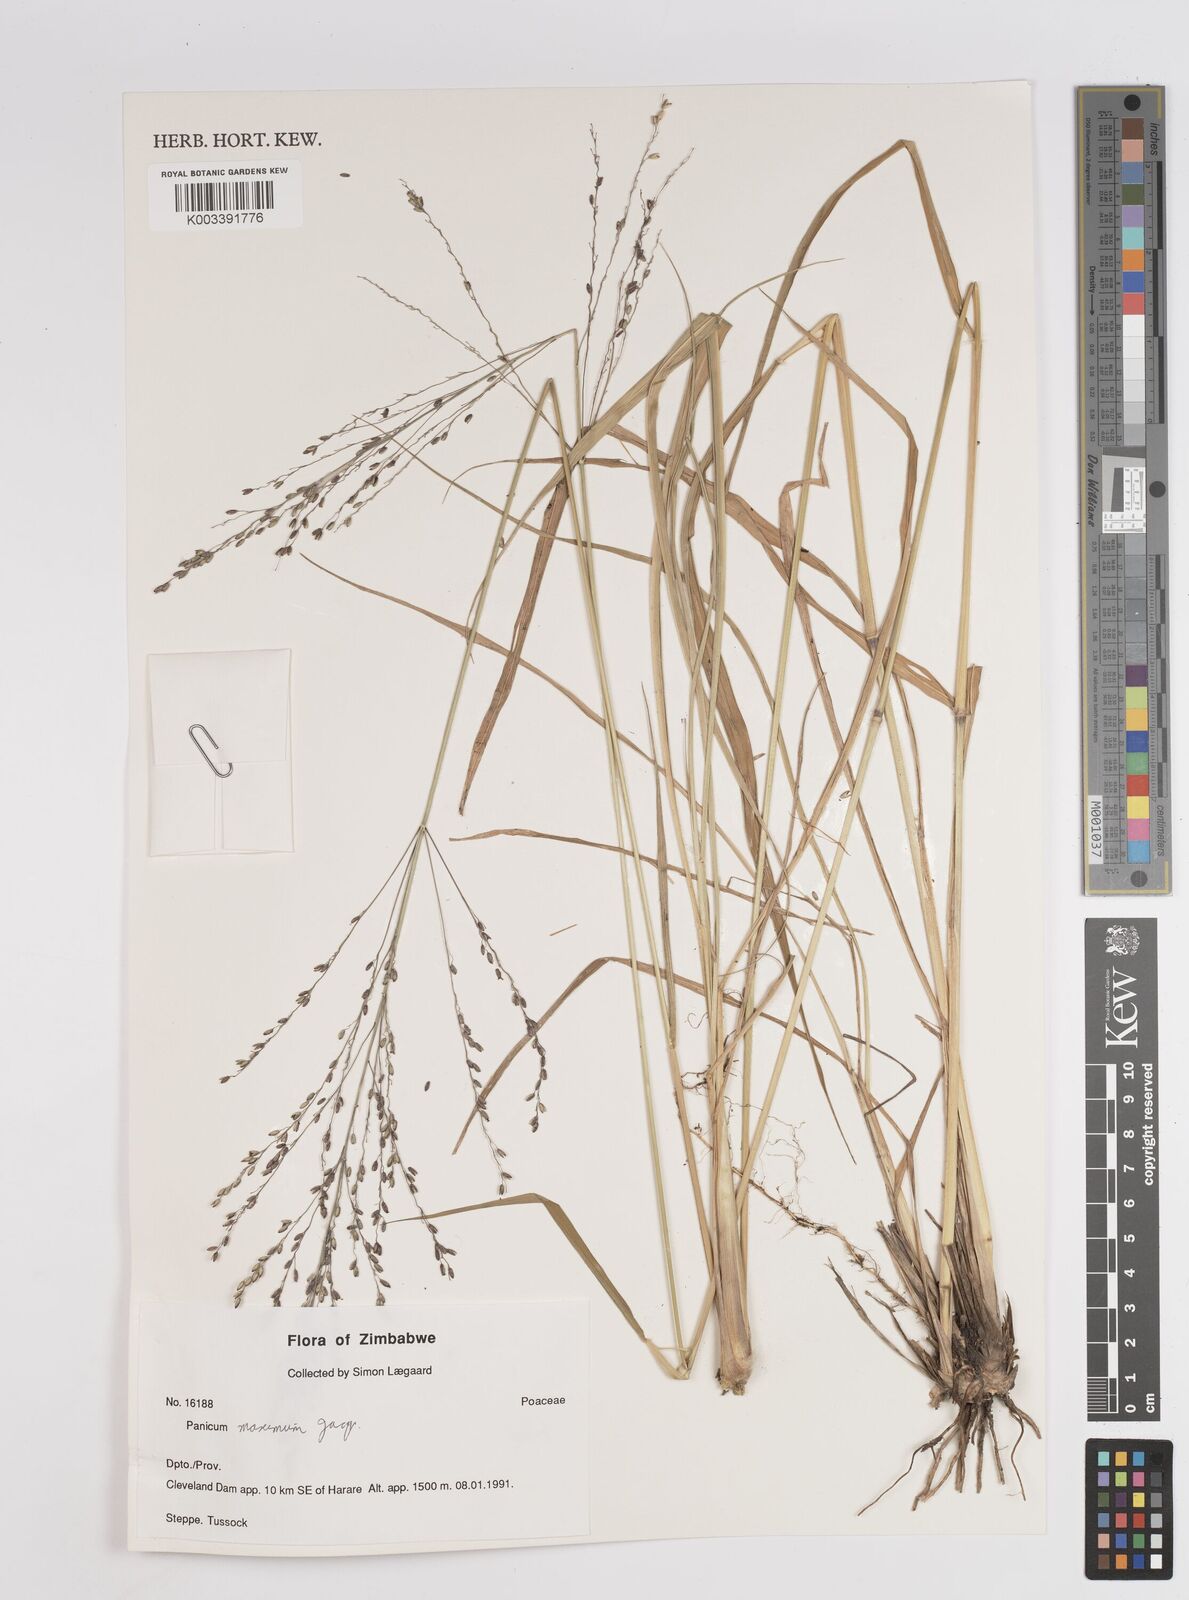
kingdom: Plantae
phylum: Tracheophyta
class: Liliopsida
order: Poales
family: Poaceae
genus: Megathyrsus
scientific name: Megathyrsus maximus
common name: Guineagrass
